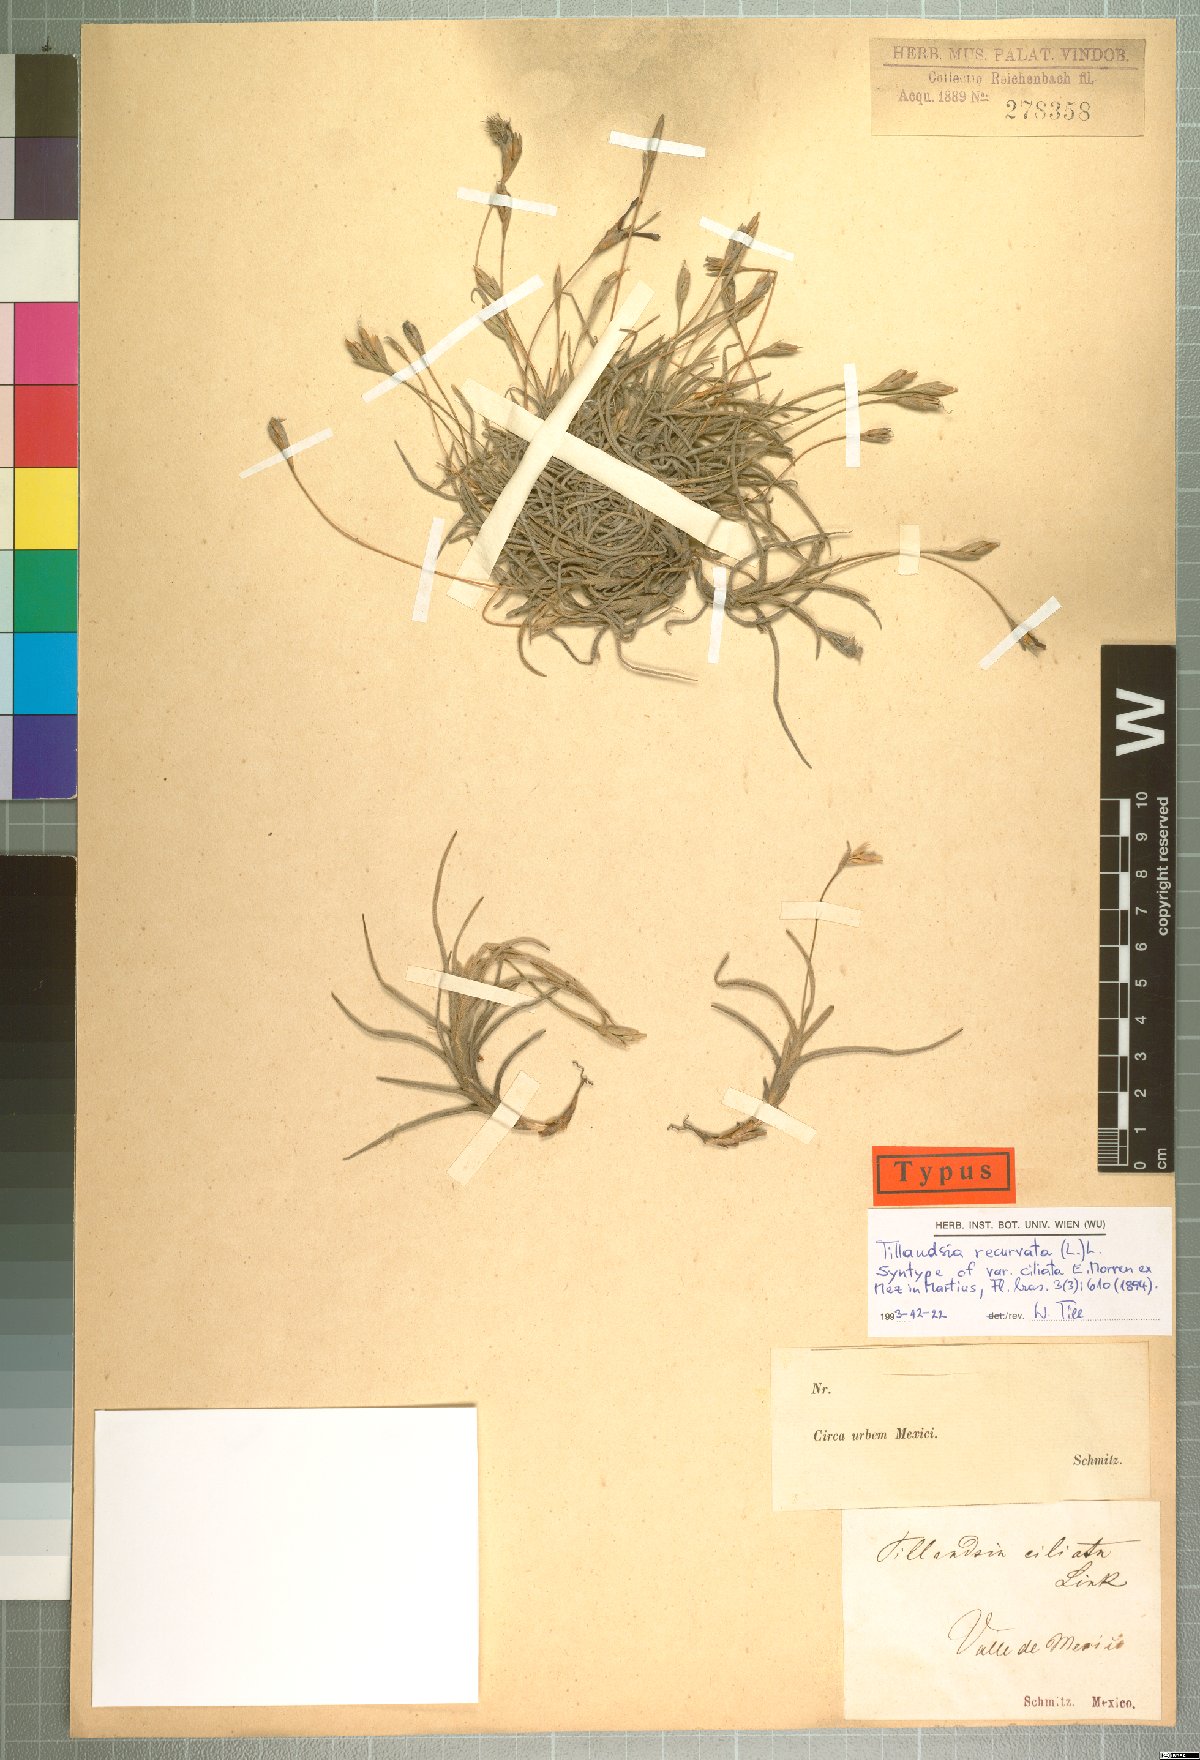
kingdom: Plantae
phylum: Tracheophyta
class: Liliopsida
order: Poales
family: Bromeliaceae
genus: Tillandsia
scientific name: Tillandsia recurvata
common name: Small ballmoss
